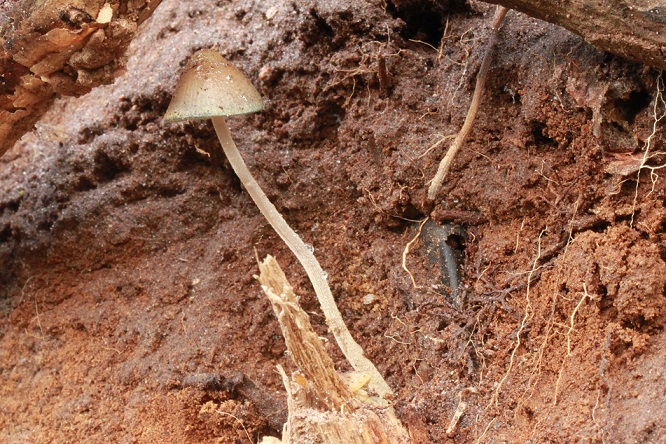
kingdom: Fungi
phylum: Basidiomycota
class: Agaricomycetes
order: Agaricales
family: Mycenaceae
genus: Mycena
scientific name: Mycena amicta
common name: iris-huesvamp
